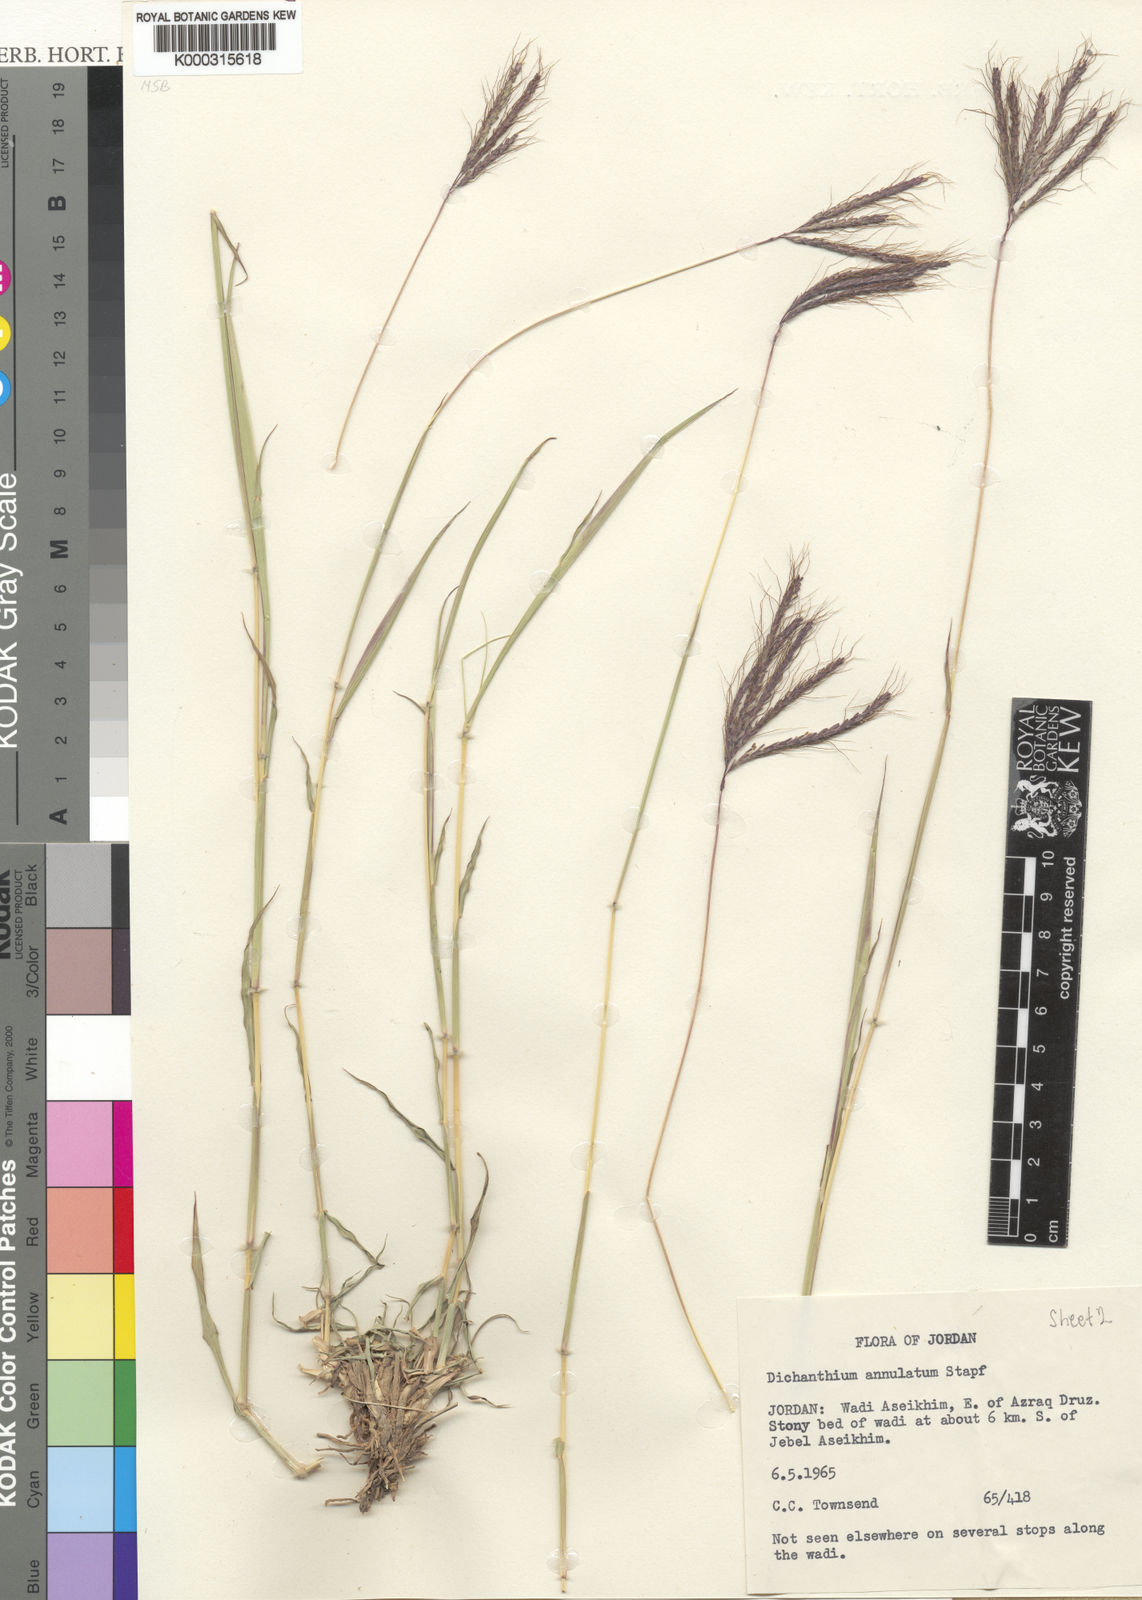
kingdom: Plantae
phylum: Tracheophyta
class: Liliopsida
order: Poales
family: Poaceae
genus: Dichanthium
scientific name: Dichanthium annulatum
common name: Kleberg's bluestem
